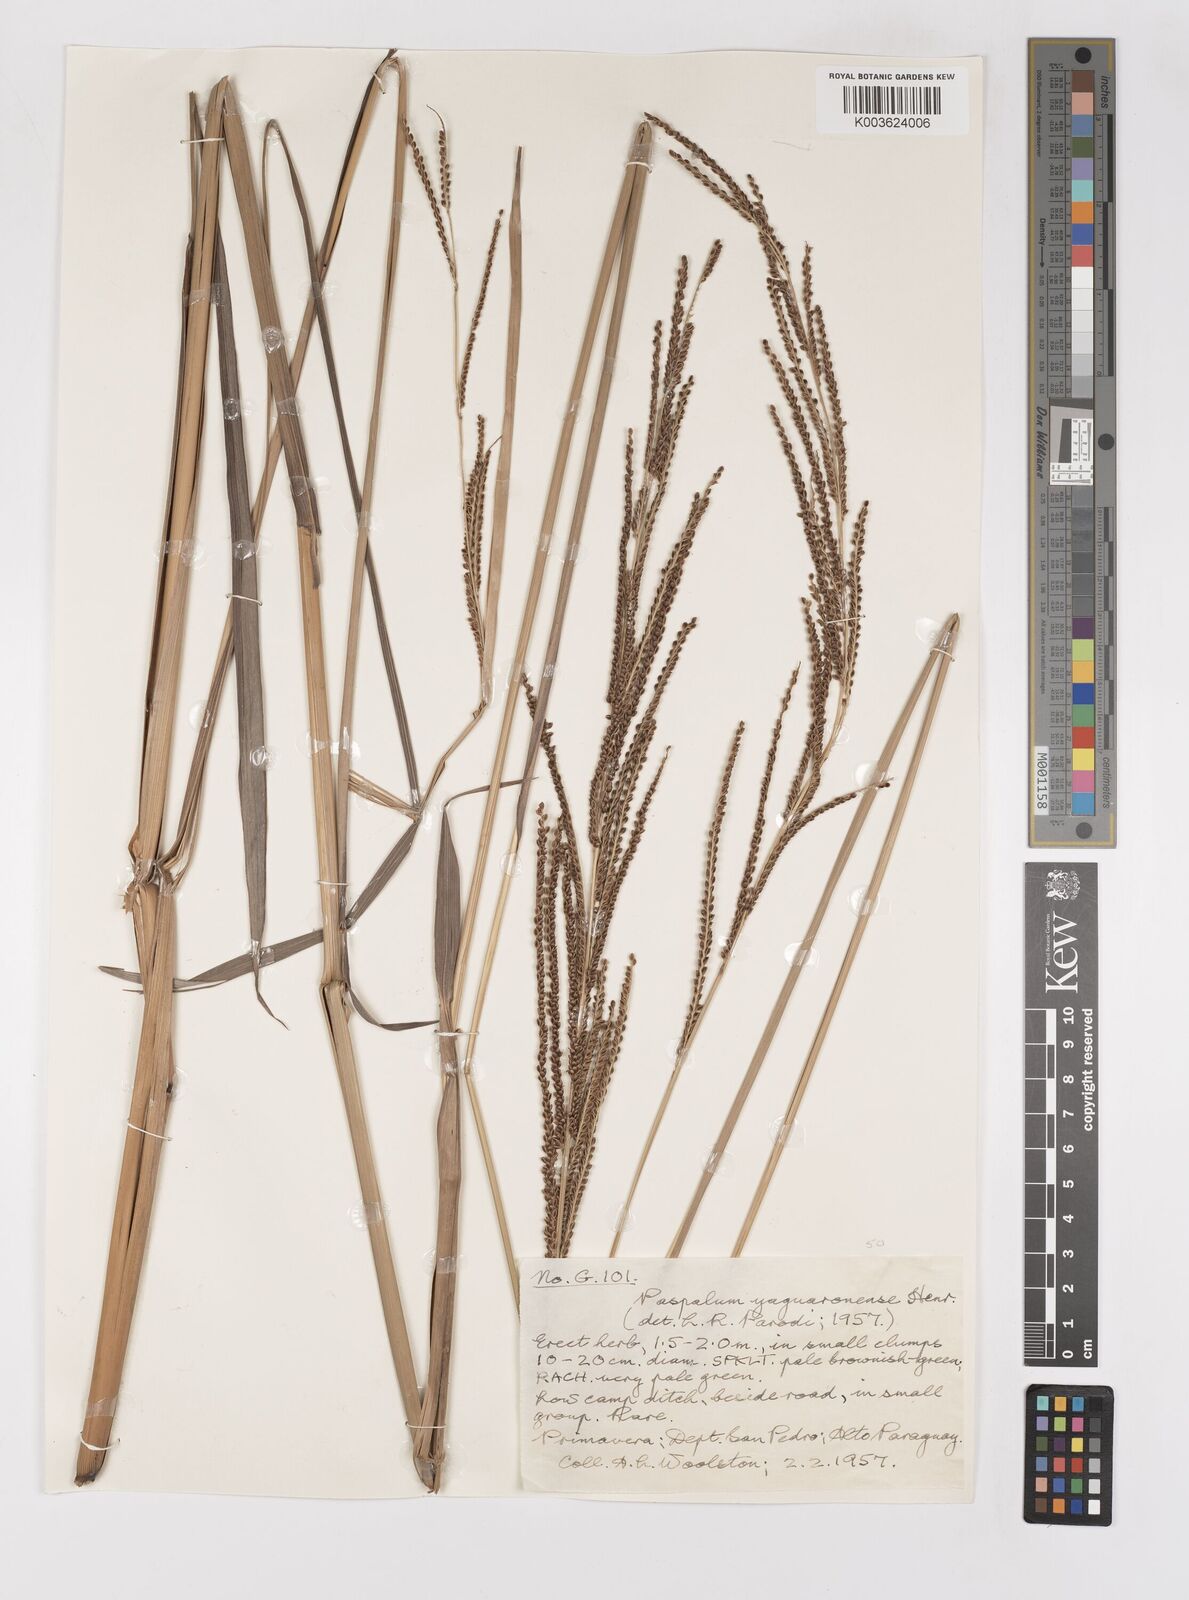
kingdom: Plantae
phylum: Tracheophyta
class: Liliopsida
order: Poales
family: Poaceae
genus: Paspalum
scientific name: Paspalum glaucescens
